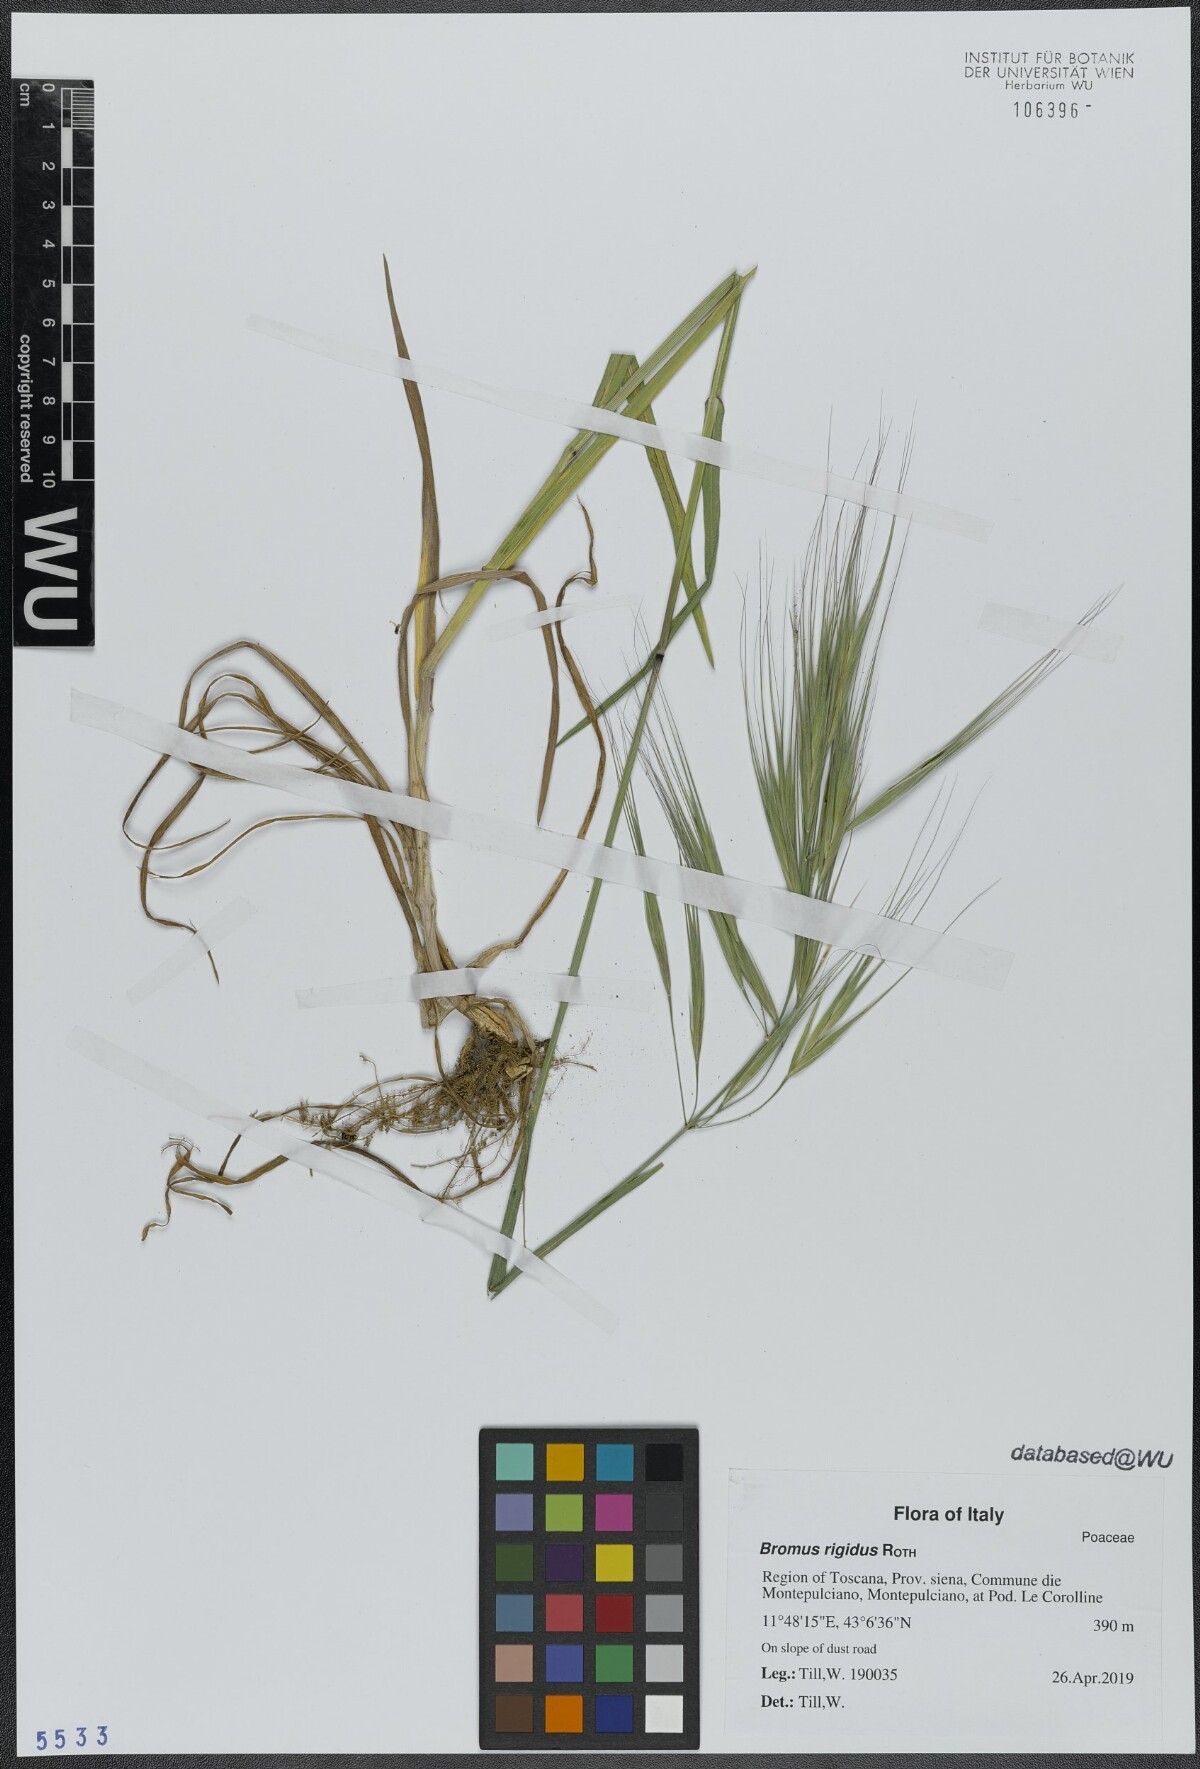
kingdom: Plantae
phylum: Tracheophyta
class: Liliopsida
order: Poales
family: Poaceae
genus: Bromus
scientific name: Bromus rigidus
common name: Ripgut brome
